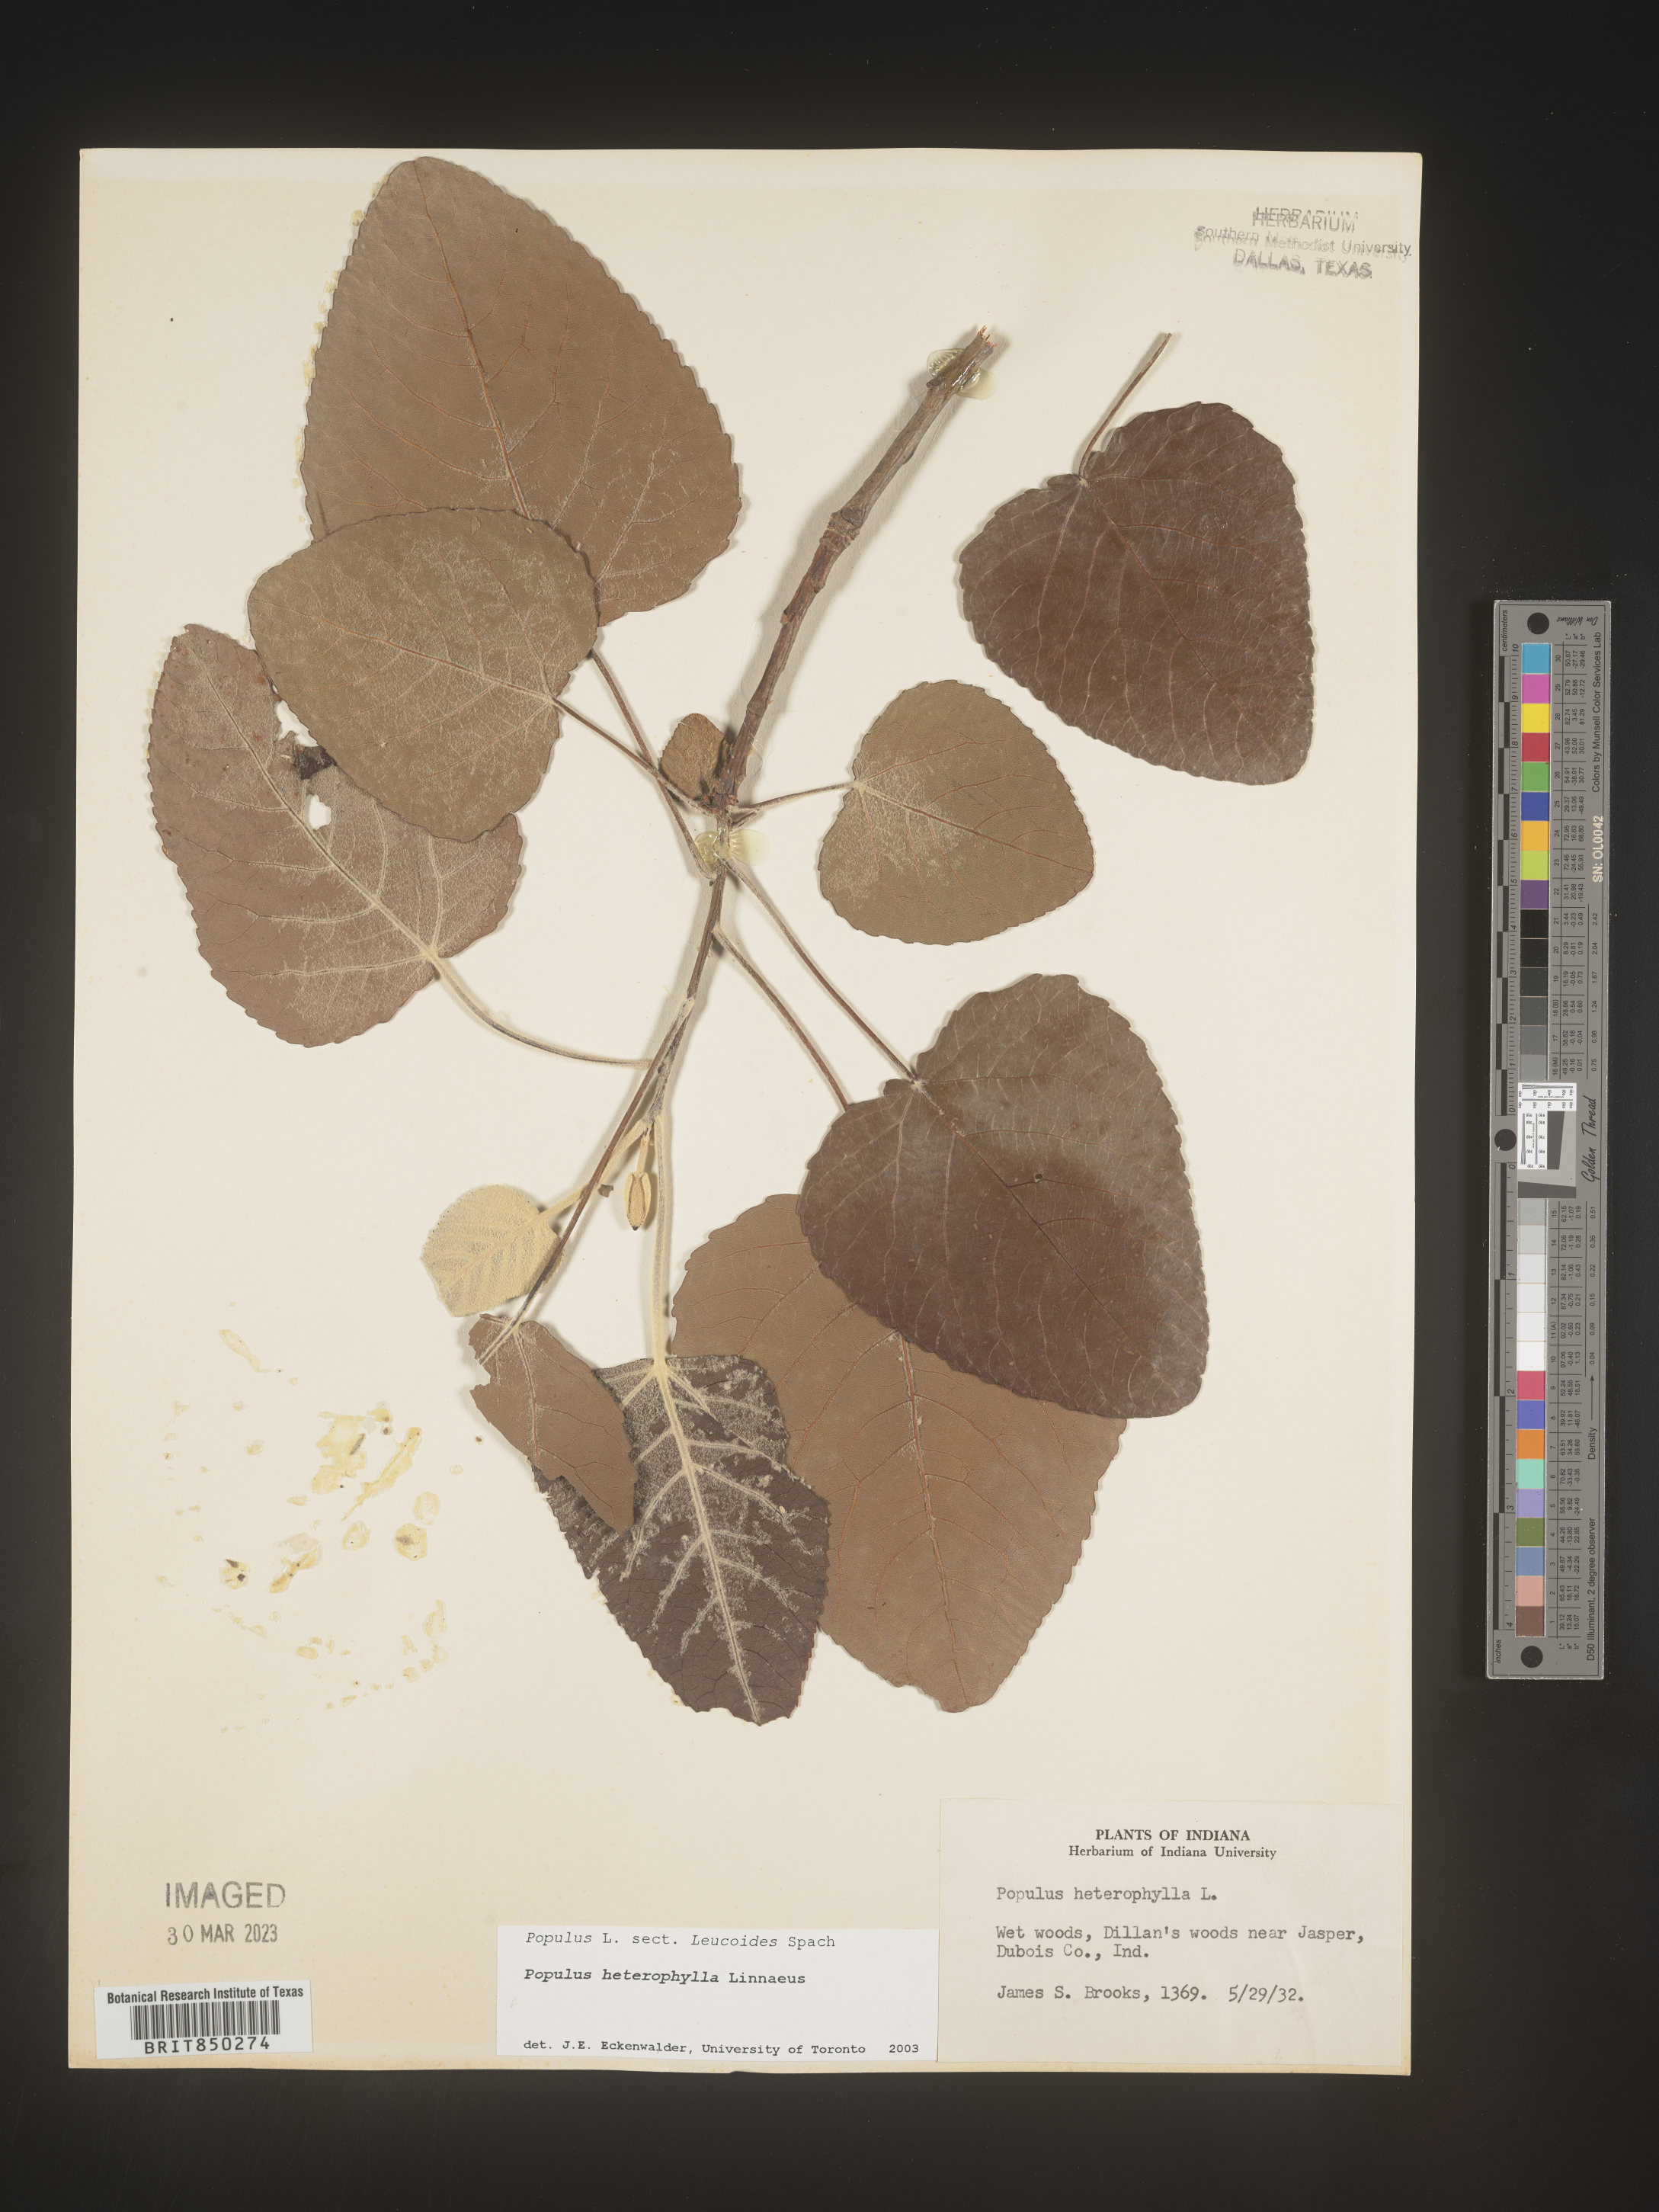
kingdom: Plantae
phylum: Tracheophyta
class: Magnoliopsida
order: Malpighiales
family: Salicaceae
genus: Populus
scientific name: Populus heterophylla
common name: Downy poplar
